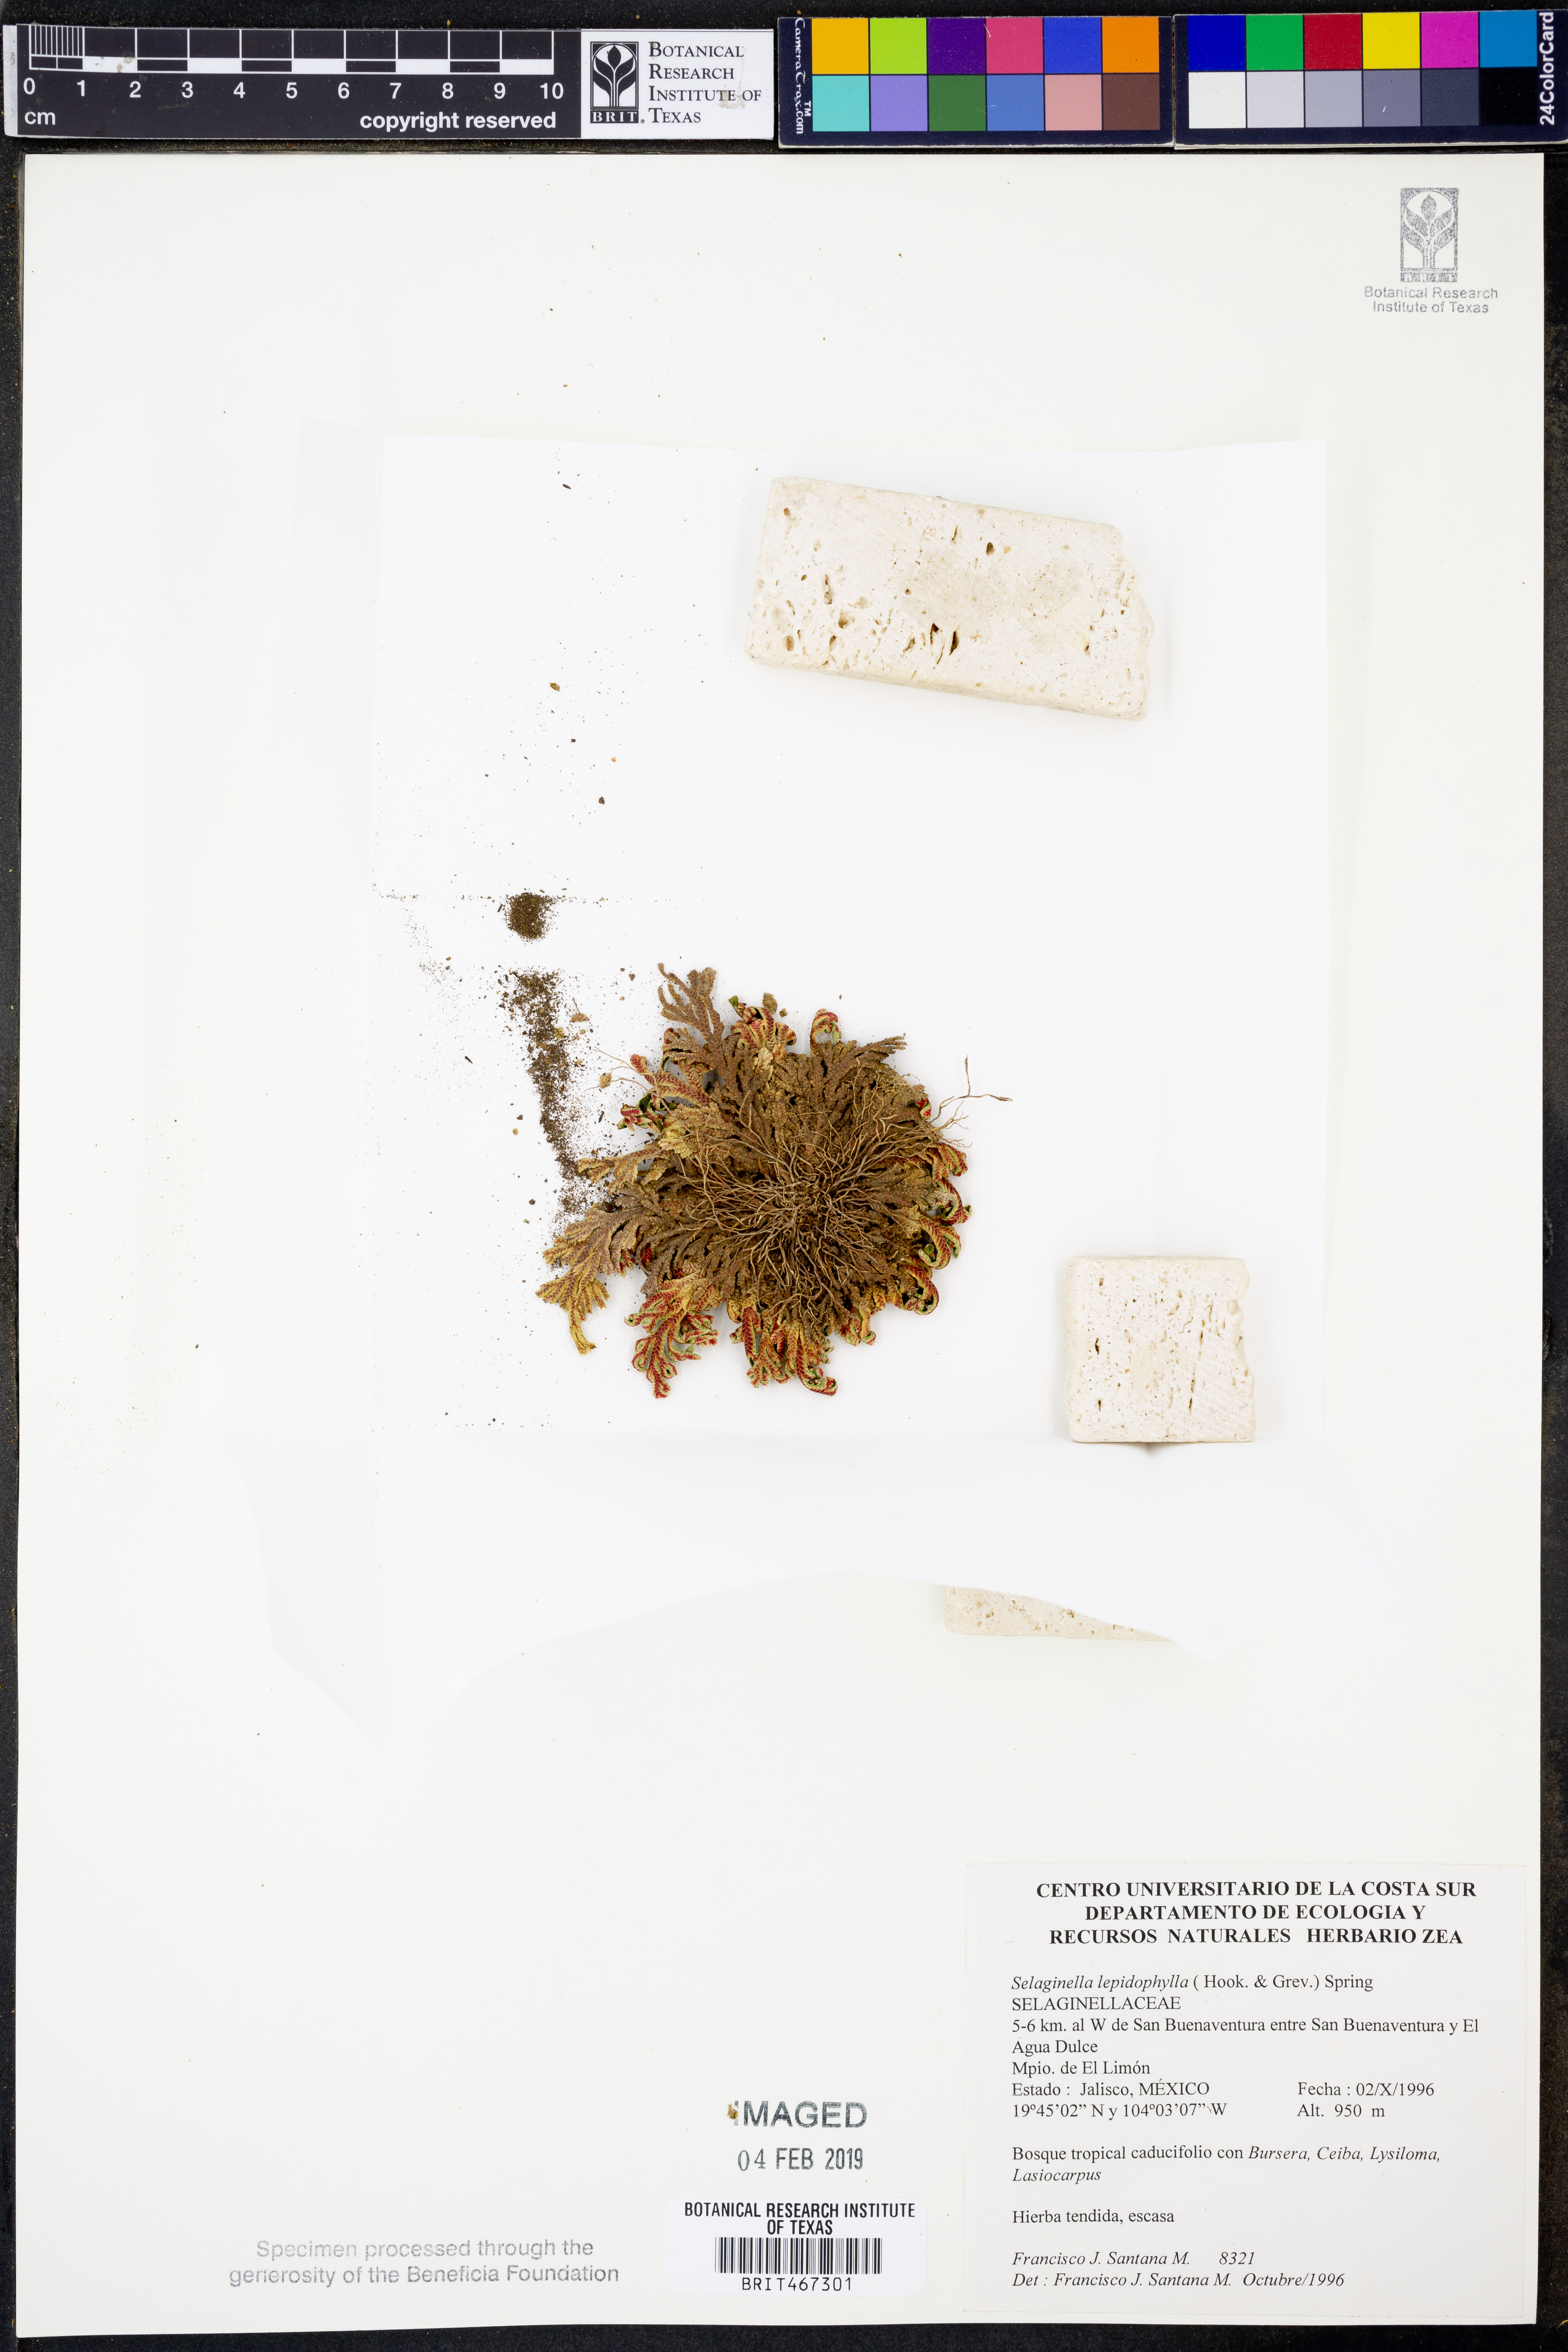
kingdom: Plantae
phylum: Tracheophyta
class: Lycopodiopsida
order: Selaginellales
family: Selaginellaceae
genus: Selaginella
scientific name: Selaginella lepidophylla
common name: Rose-of-jericho
